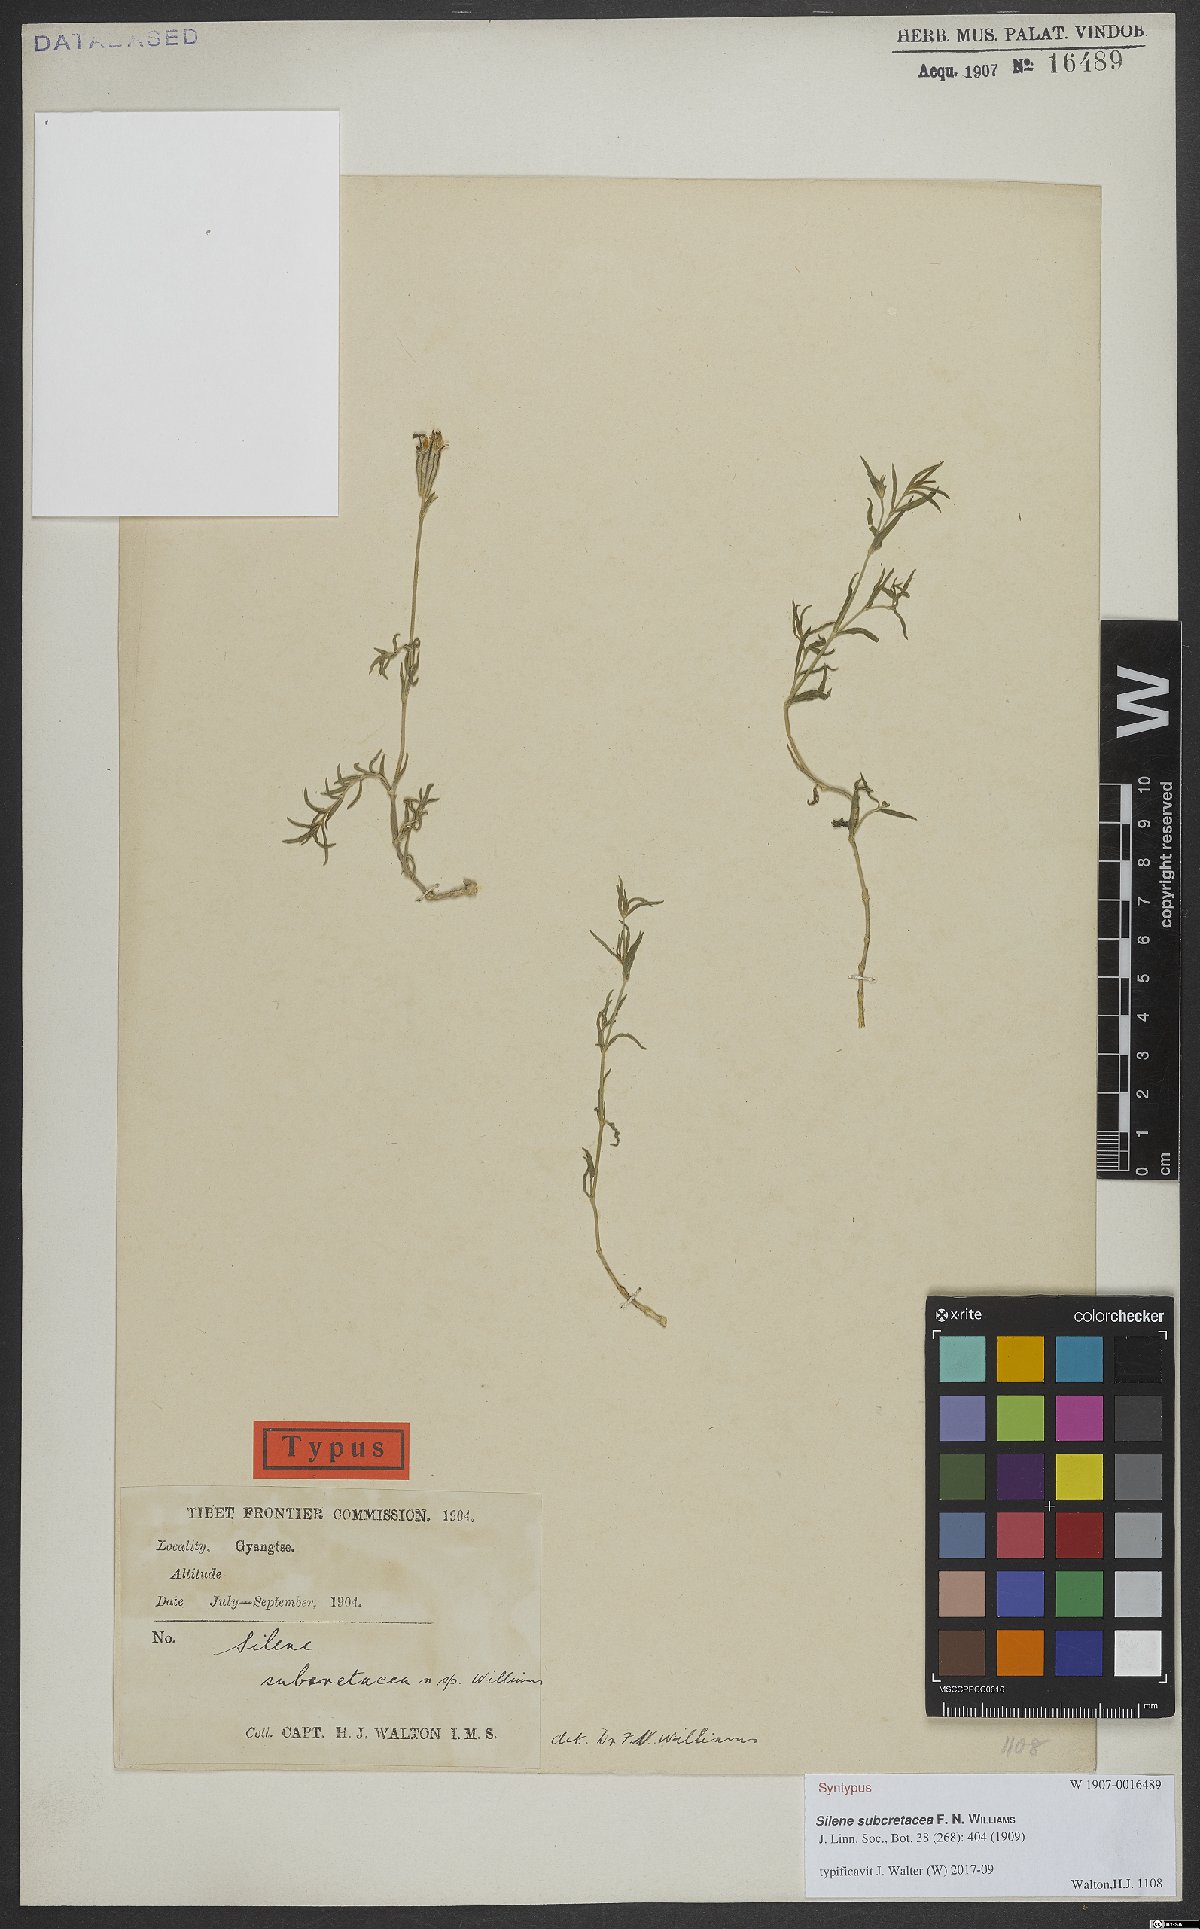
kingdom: Plantae
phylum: Tracheophyta
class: Magnoliopsida
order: Caryophyllales
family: Caryophyllaceae
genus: Silene
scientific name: Silene subcretacea
